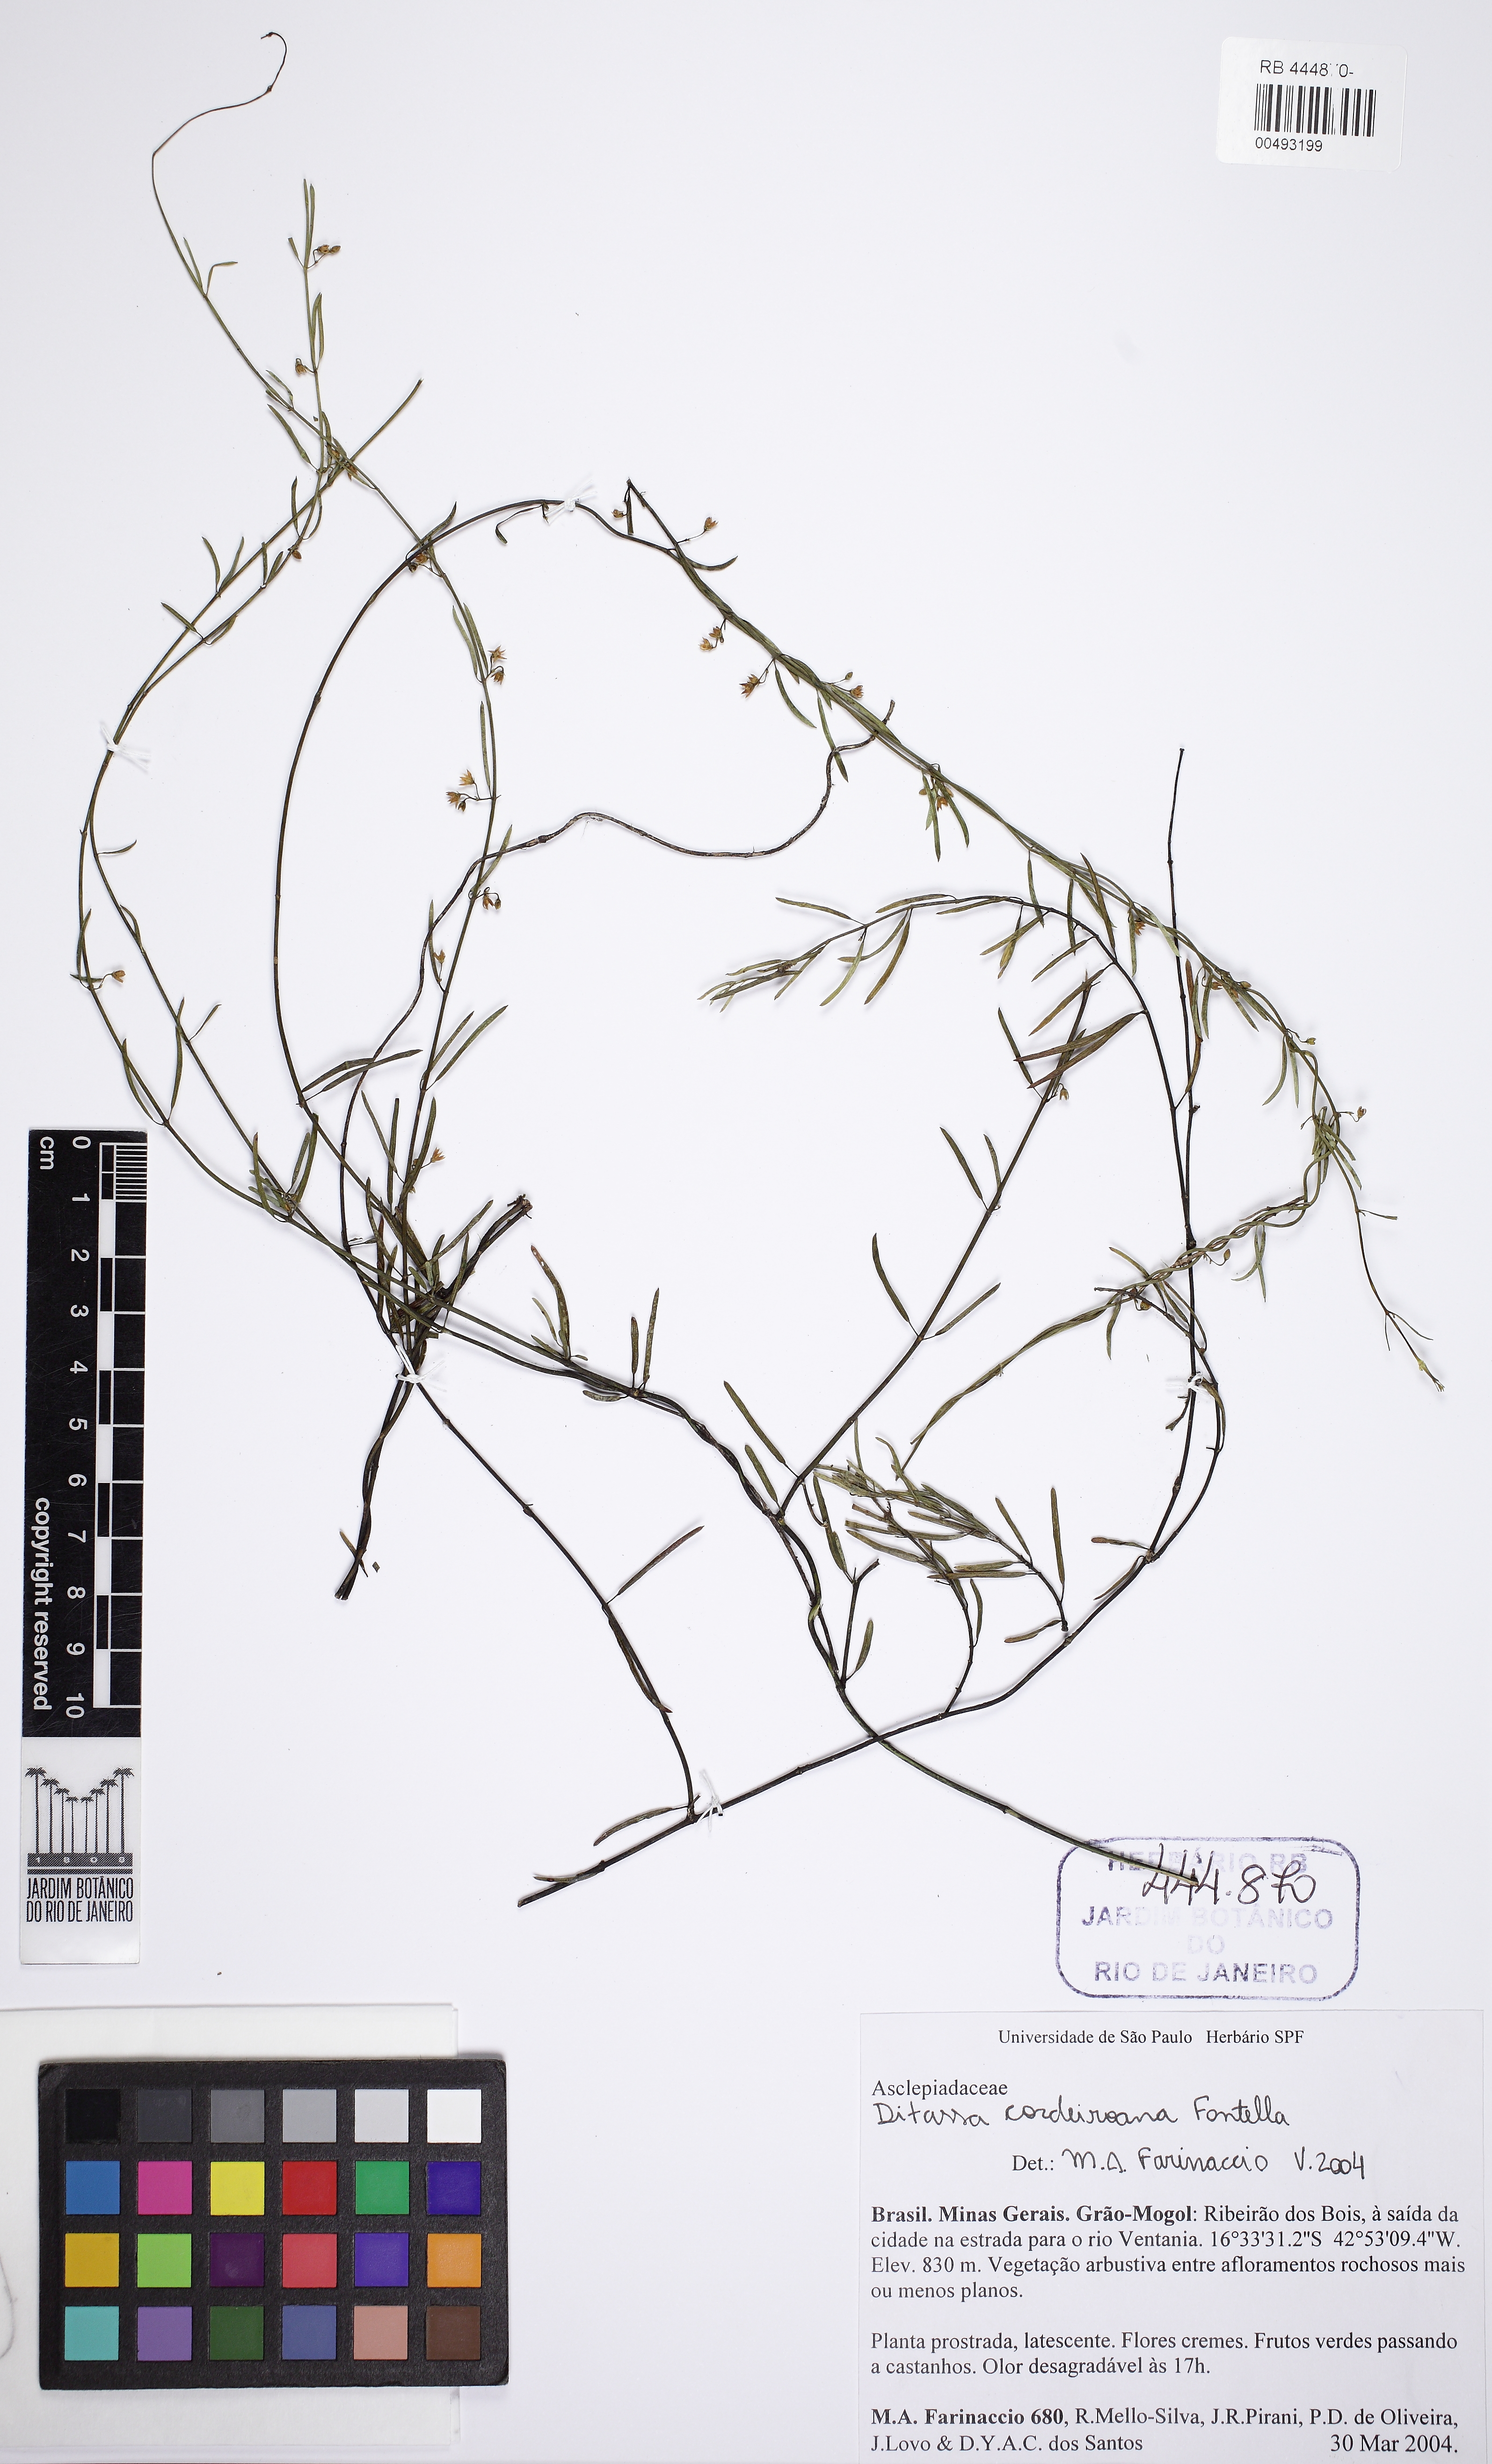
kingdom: Plantae
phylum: Tracheophyta
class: Magnoliopsida
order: Gentianales
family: Apocynaceae
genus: Ditassa
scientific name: Ditassa cordeiroana
